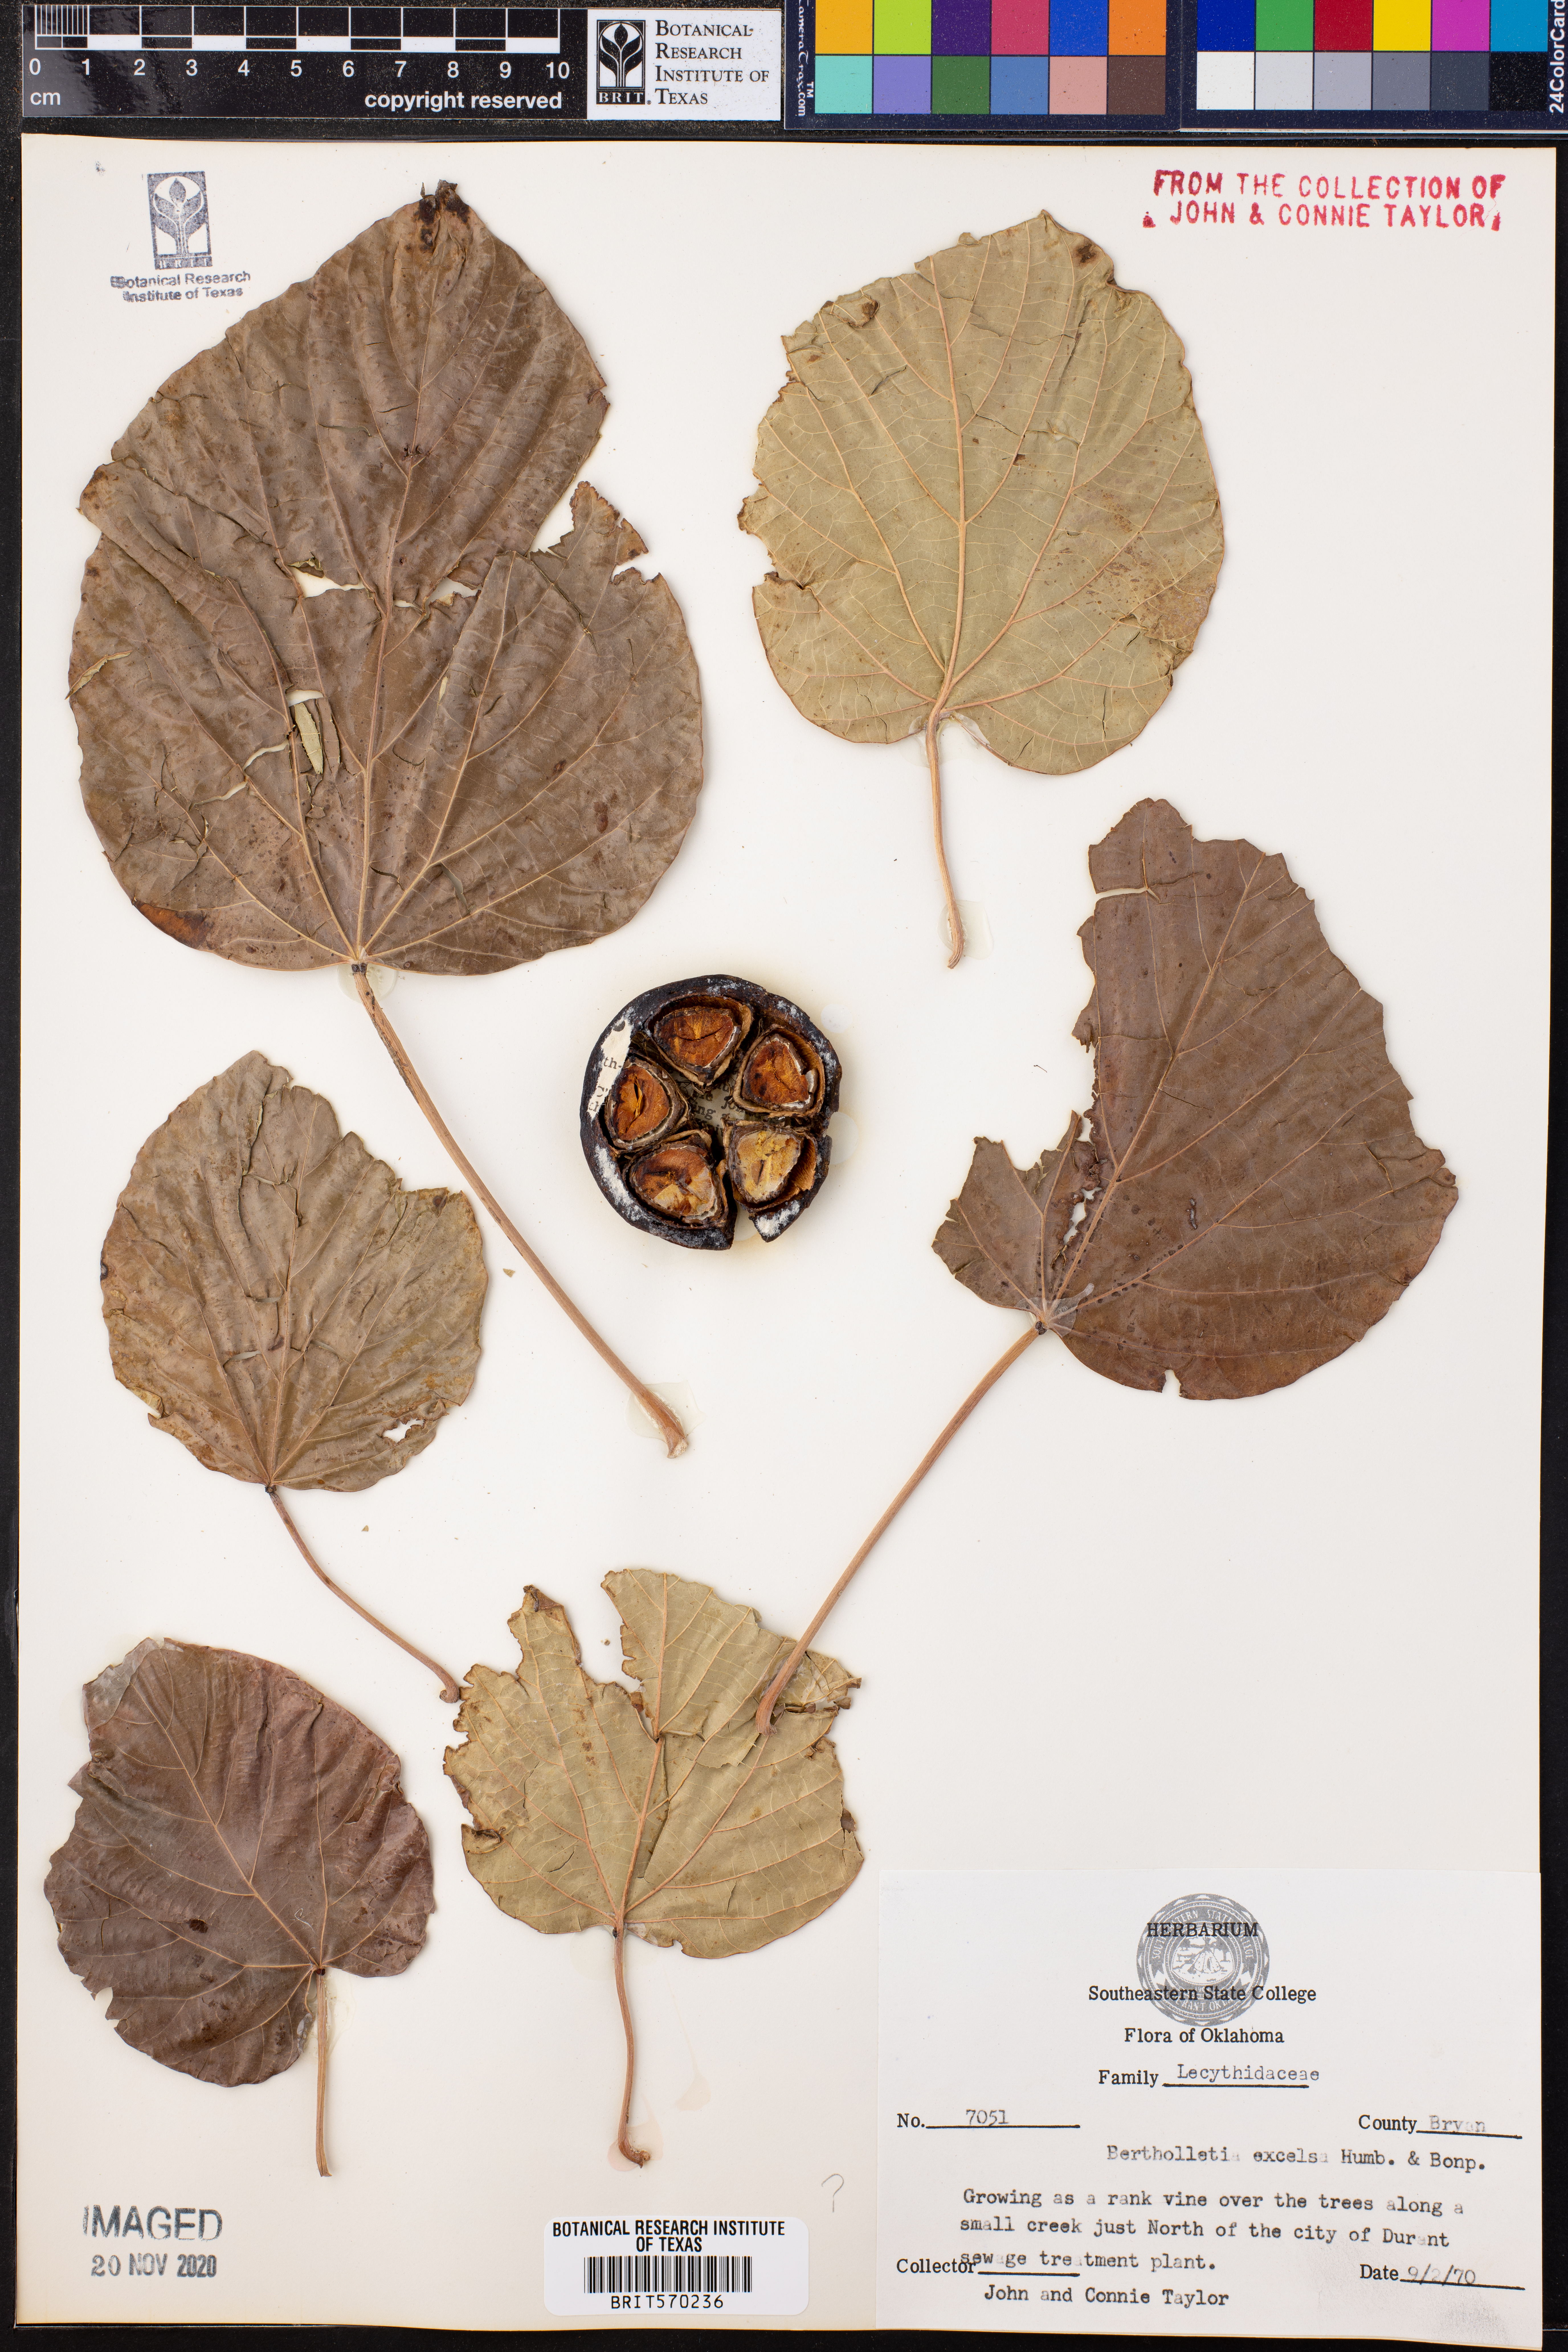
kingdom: Plantae
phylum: Tracheophyta
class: Magnoliopsida
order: Ericales
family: Lecythidaceae
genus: Bertholletia
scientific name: Bertholletia excelsa
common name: Brazil-nut tree
